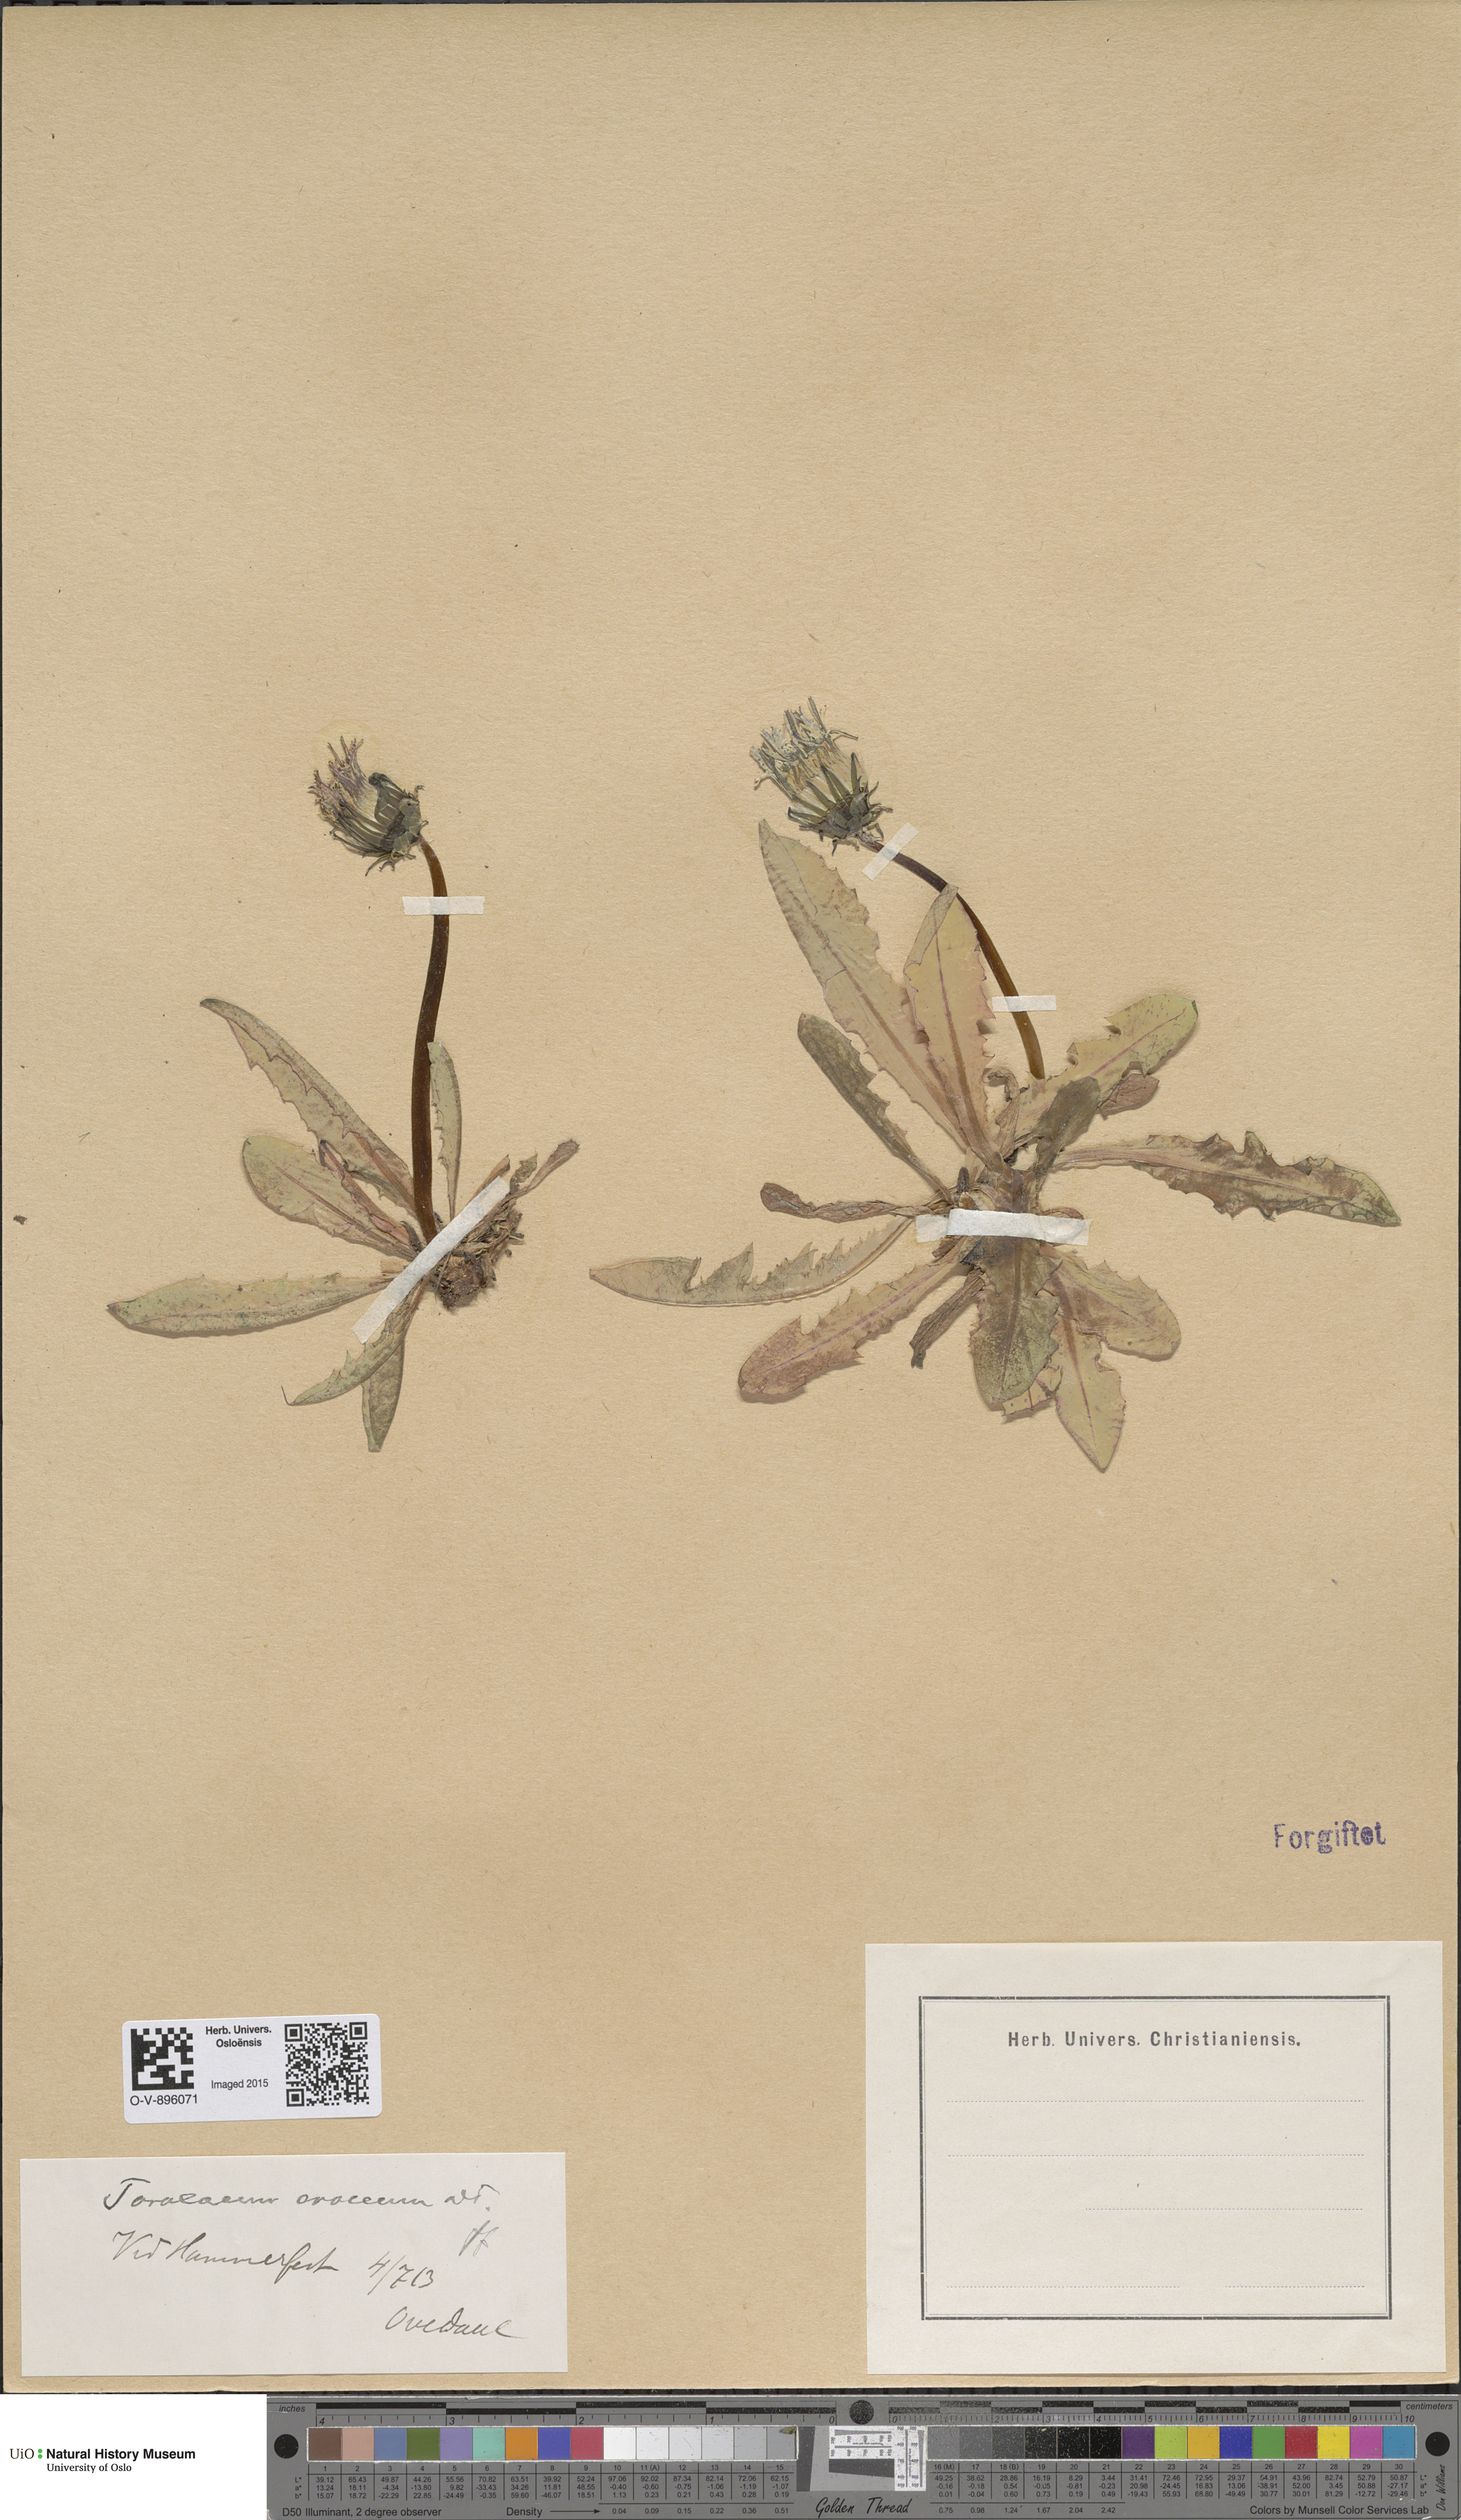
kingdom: Plantae
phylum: Tracheophyta
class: Magnoliopsida
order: Asterales
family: Asteraceae
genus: Taraxacum
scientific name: Taraxacum croceum
